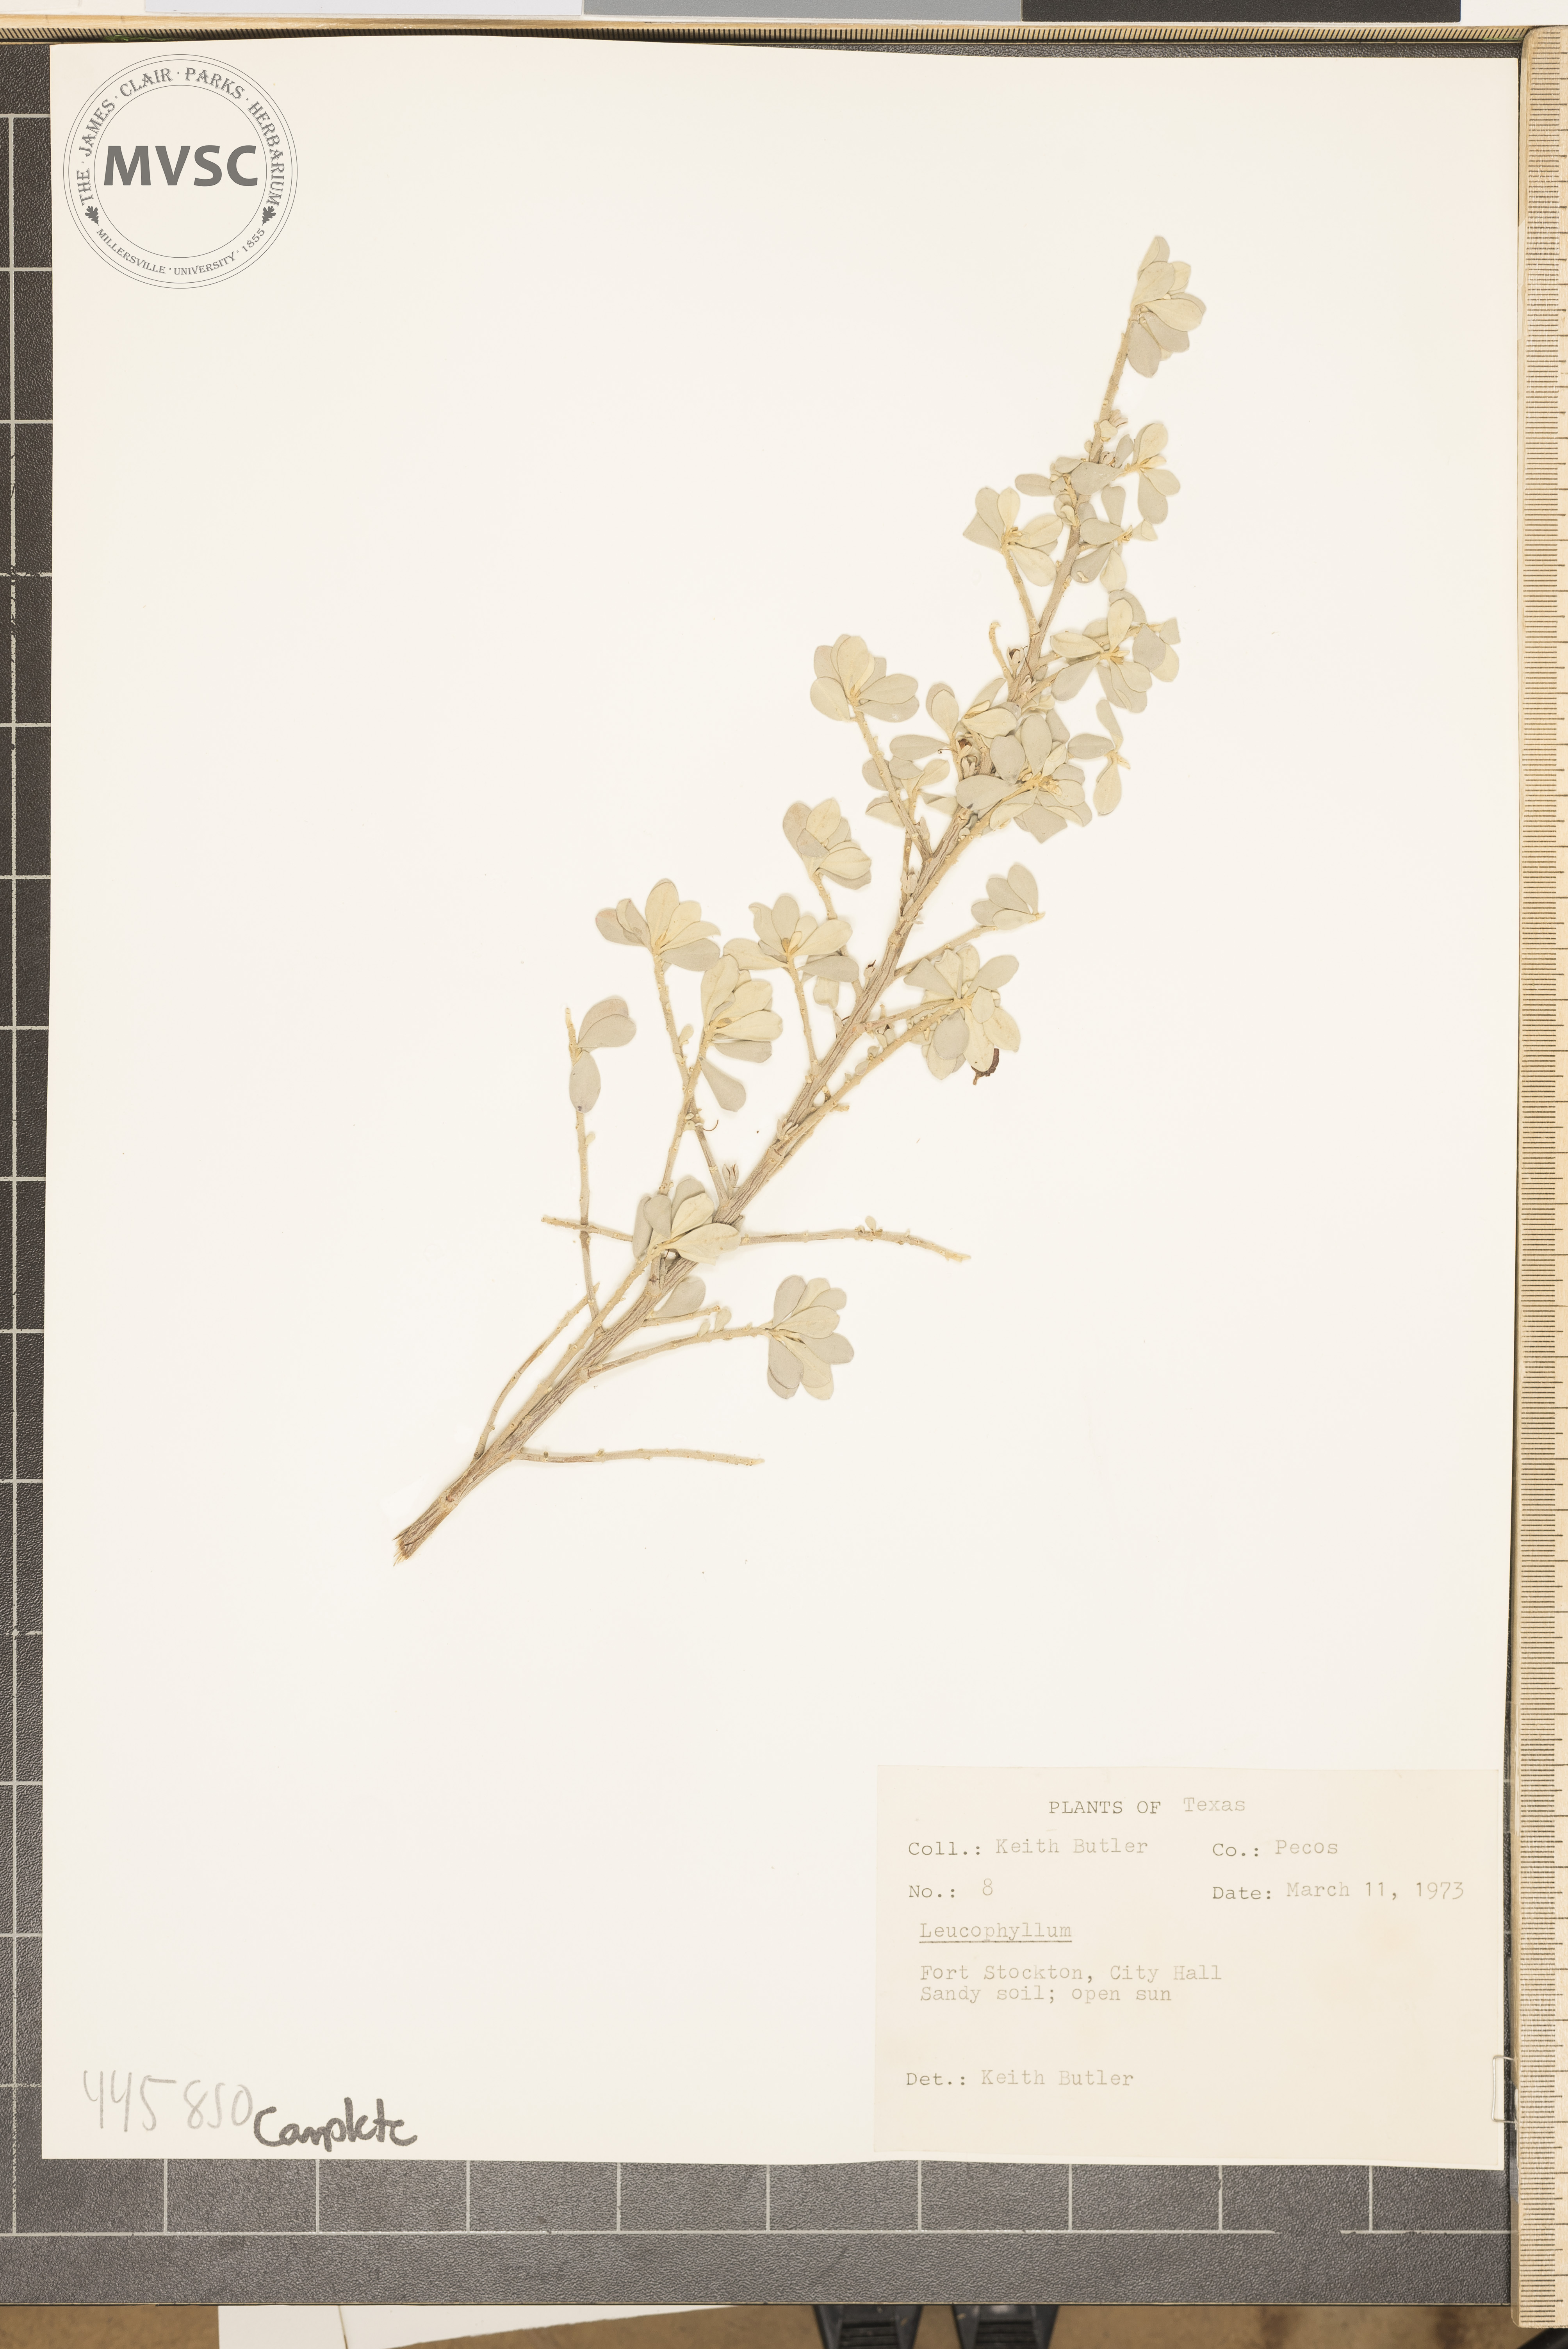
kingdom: Plantae
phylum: Tracheophyta
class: Magnoliopsida
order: Lamiales
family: Scrophulariaceae
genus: Leucophyllum
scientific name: Leucophyllum
